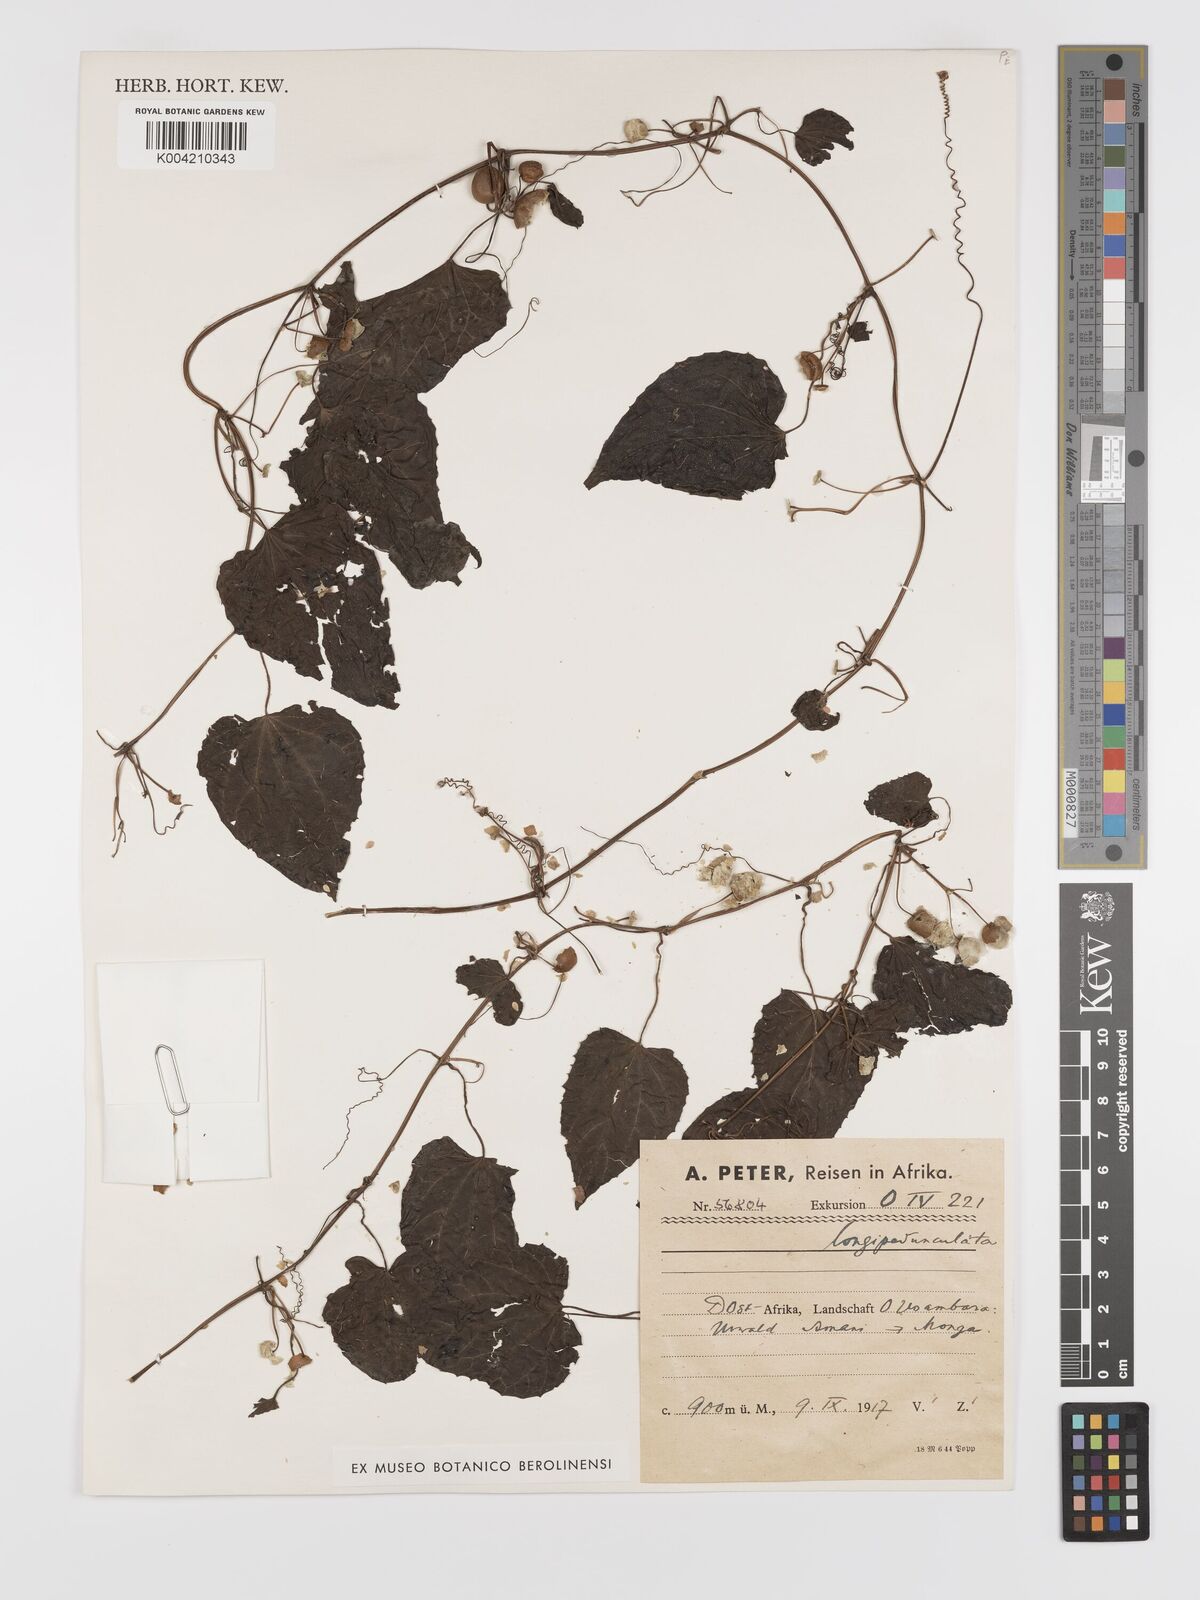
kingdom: Plantae
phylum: Tracheophyta
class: Magnoliopsida
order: Cucurbitales
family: Cucurbitaceae
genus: Zehneria
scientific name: Zehneria emirnensis
